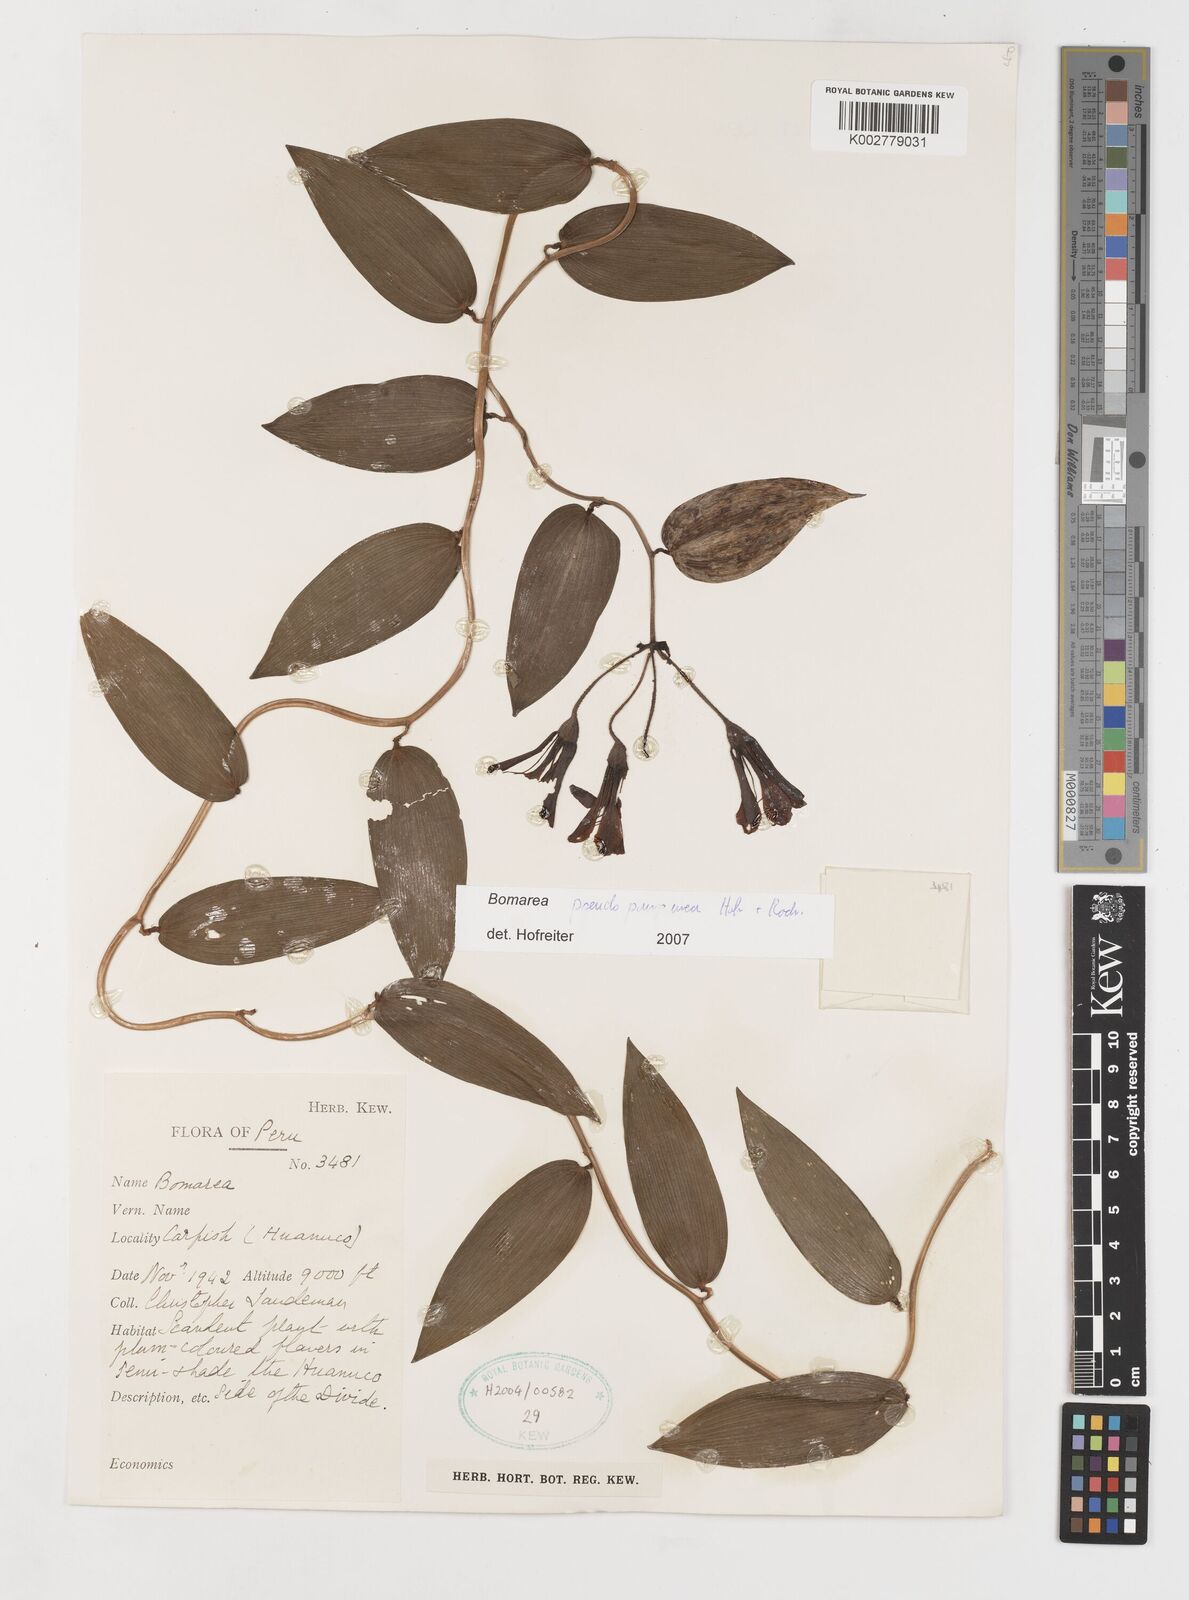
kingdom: Plantae
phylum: Tracheophyta
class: Liliopsida
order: Liliales
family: Alstroemeriaceae
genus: Bomarea
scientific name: Bomarea pseudopurpurea
